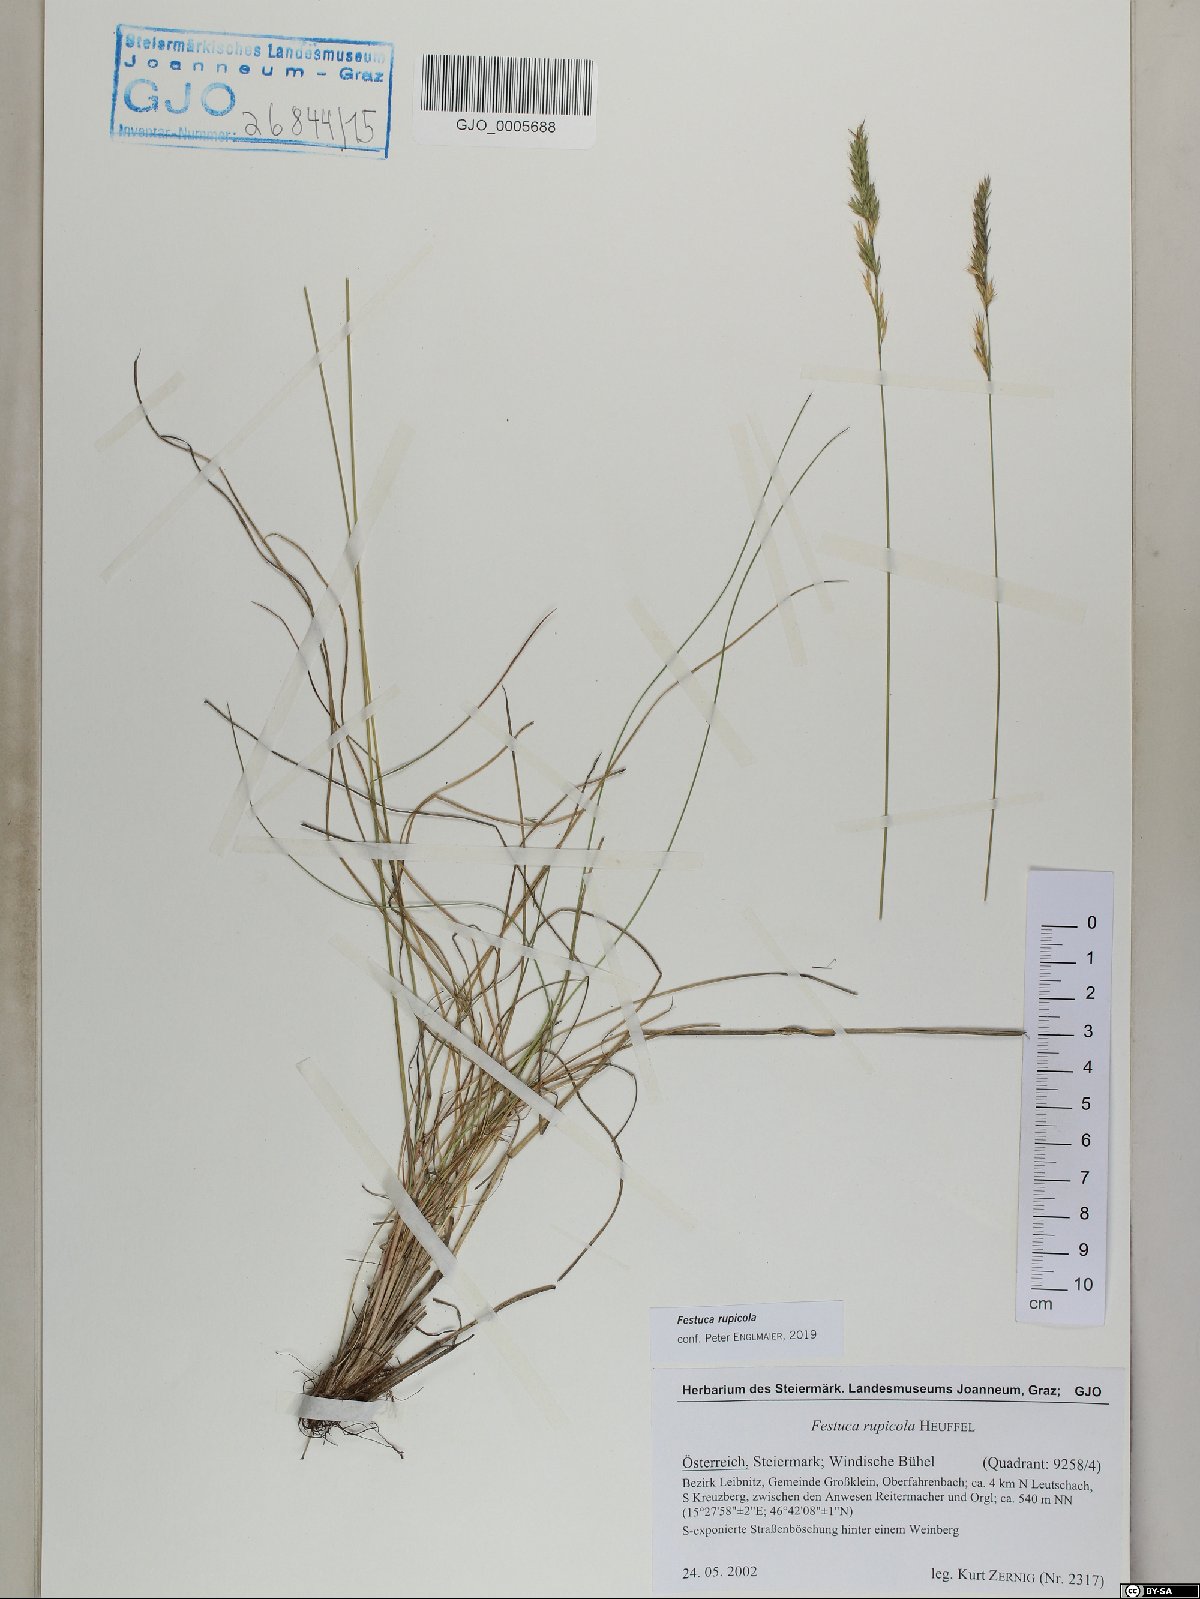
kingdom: Plantae
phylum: Tracheophyta
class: Liliopsida
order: Poales
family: Poaceae
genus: Festuca
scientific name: Festuca rupicola
